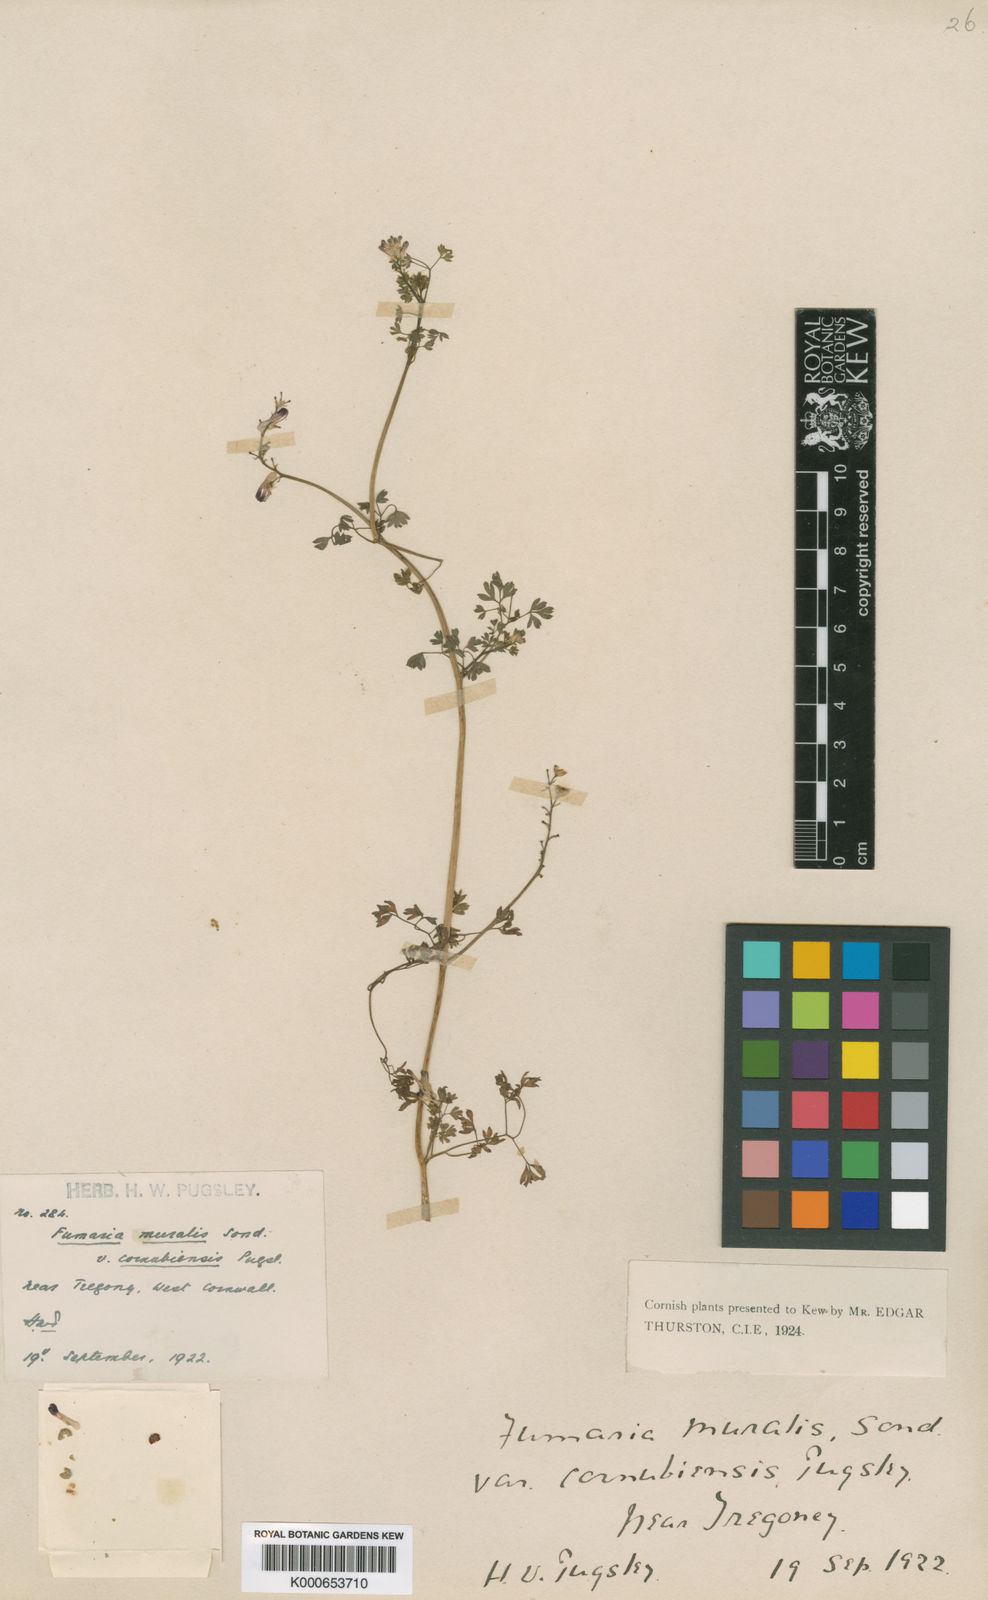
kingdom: Plantae
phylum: Tracheophyta
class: Magnoliopsida
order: Ranunculales
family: Papaveraceae
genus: Fumaria
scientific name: Fumaria muralis
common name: Common ramping-fumitory
